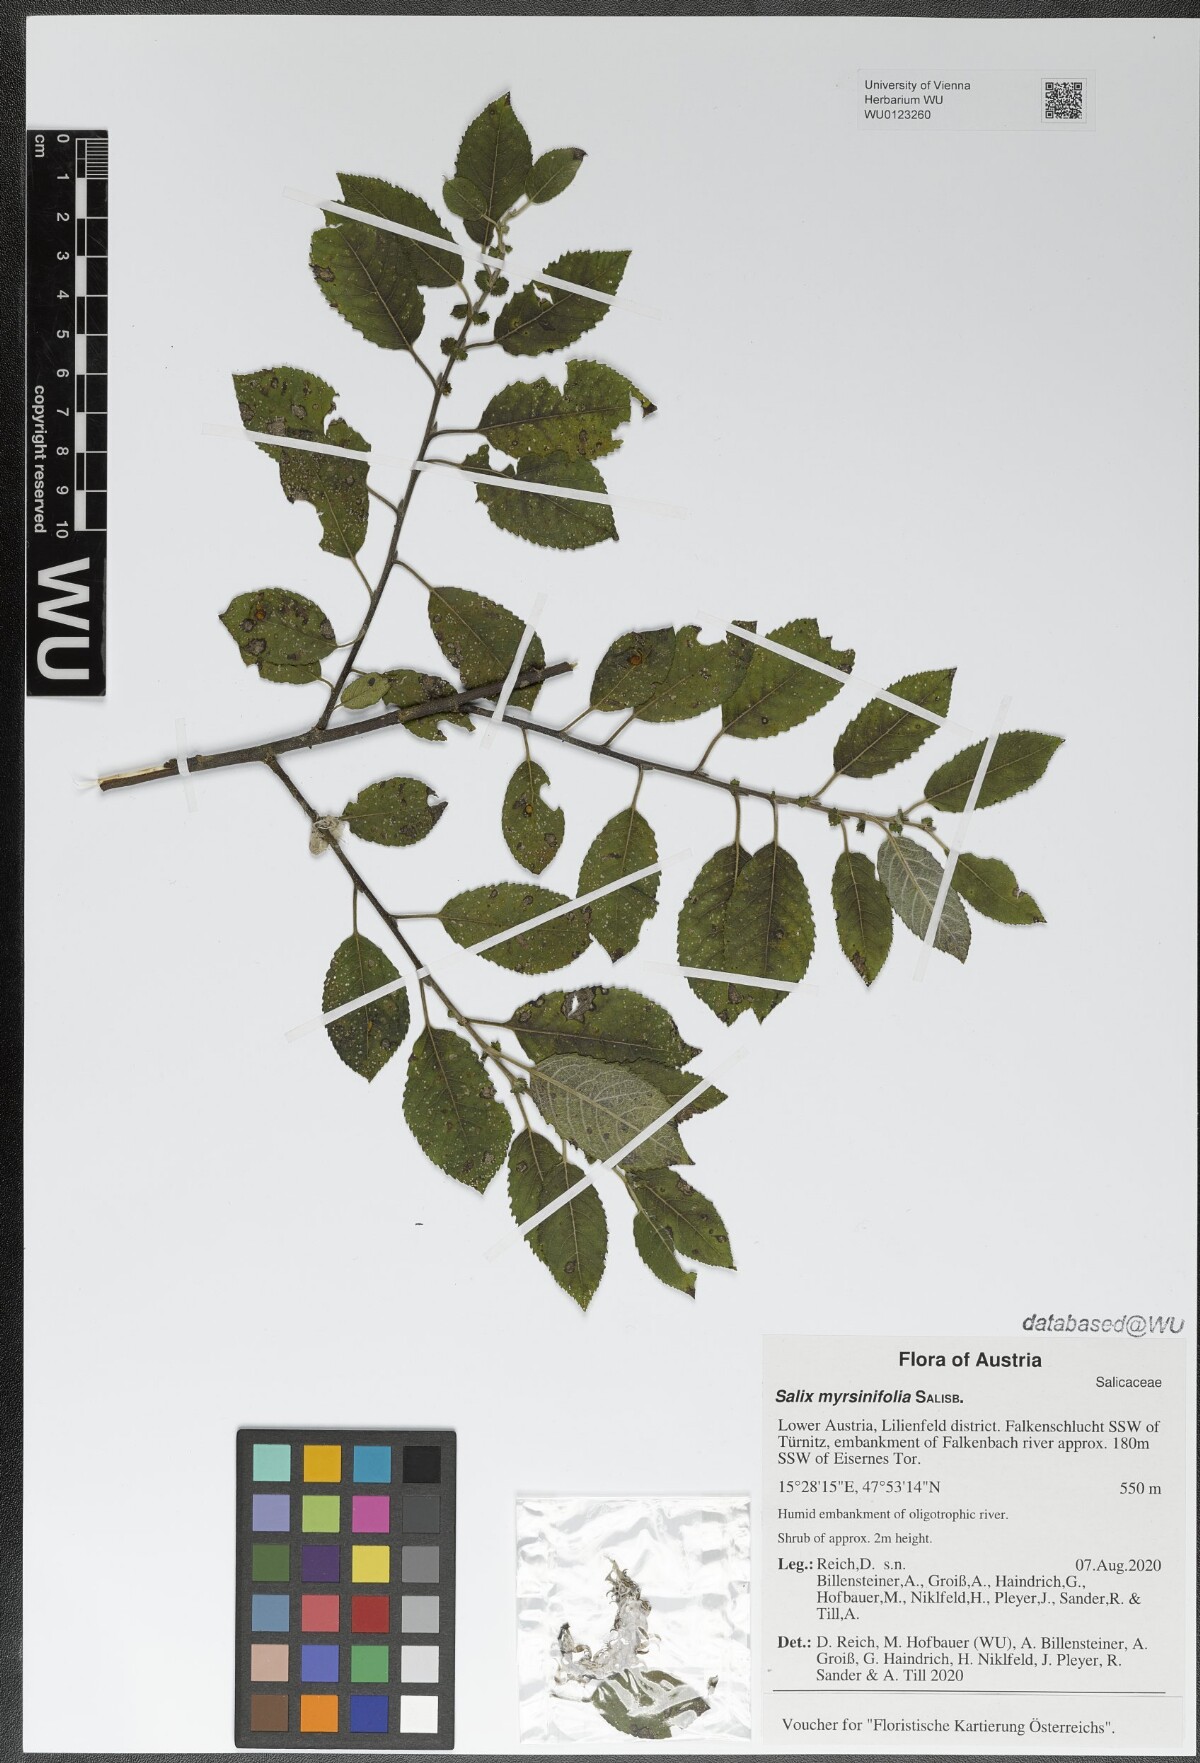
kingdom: Plantae
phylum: Tracheophyta
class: Magnoliopsida
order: Malpighiales
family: Salicaceae
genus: Salix
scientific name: Salix myrsinifolia
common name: Dark-leaved willow
